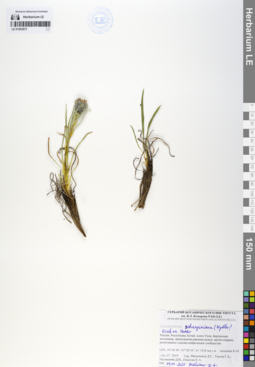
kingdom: Plantae
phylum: Tracheophyta
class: Magnoliopsida
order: Asterales
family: Asteraceae
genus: Saussurea
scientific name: Saussurea schanginiana
